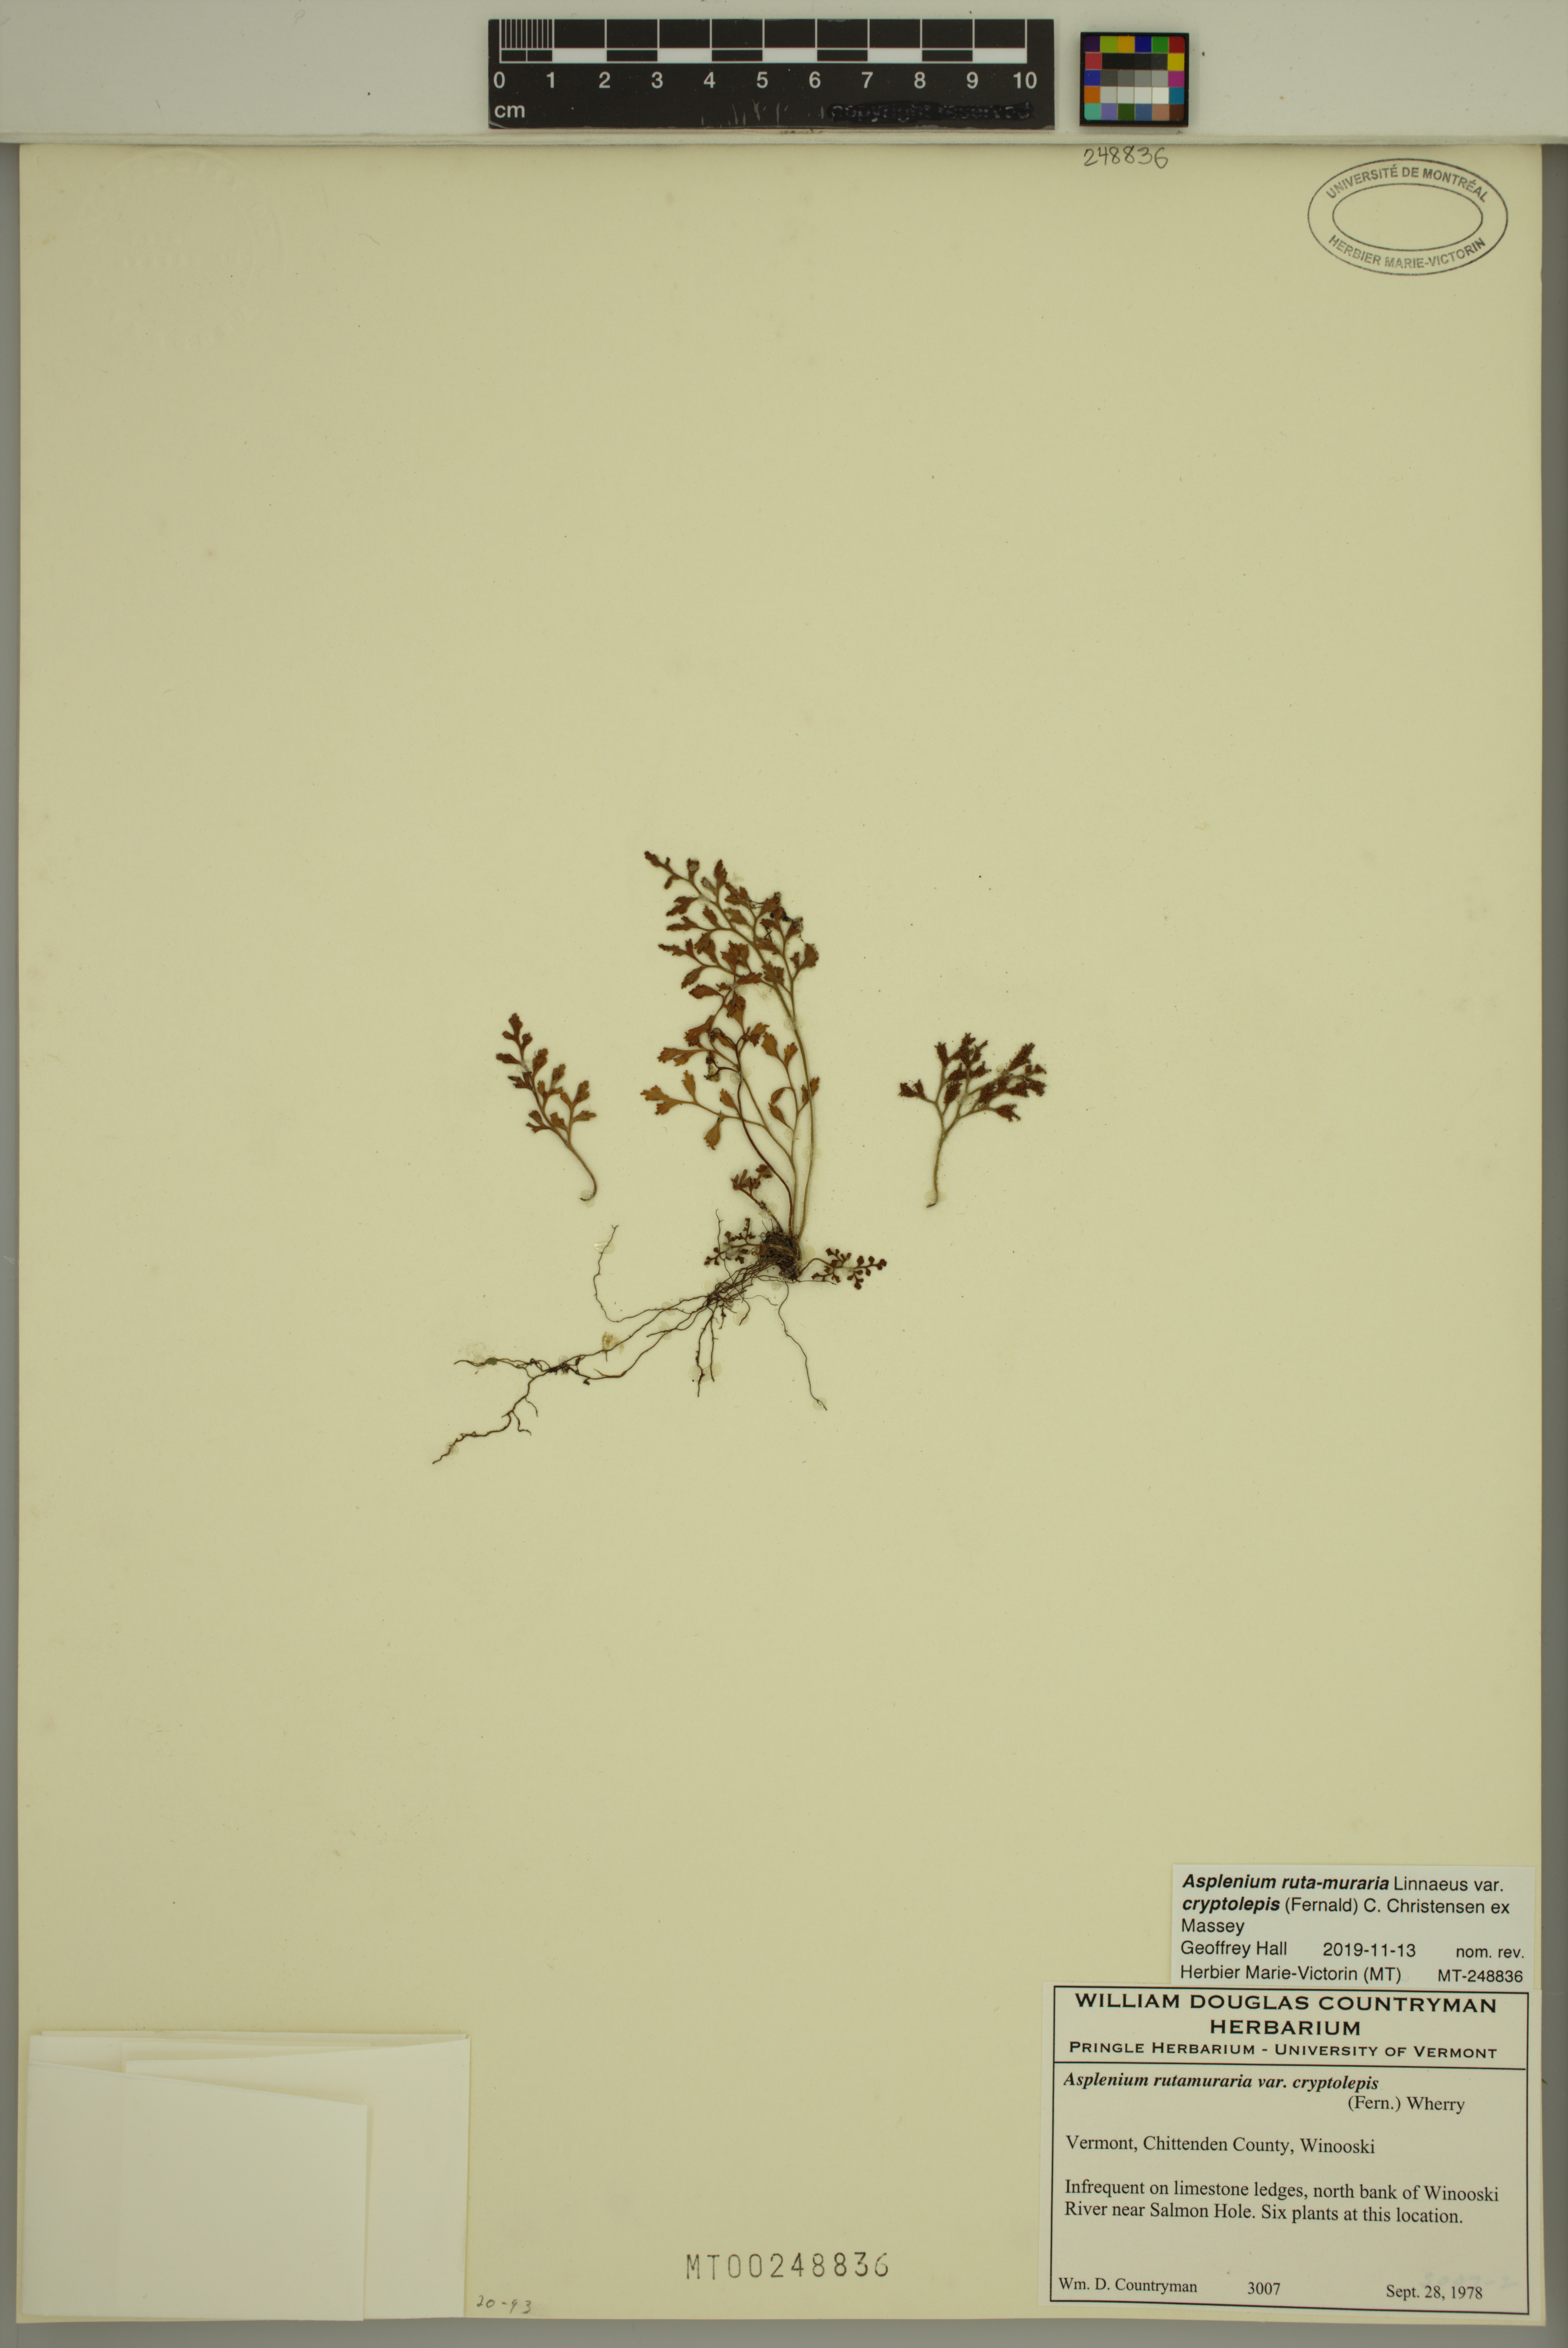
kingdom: Plantae
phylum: Tracheophyta
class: Polypodiopsida
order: Polypodiales
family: Aspleniaceae
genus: Asplenium
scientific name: Asplenium ruta-muraria
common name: Wall-rue
